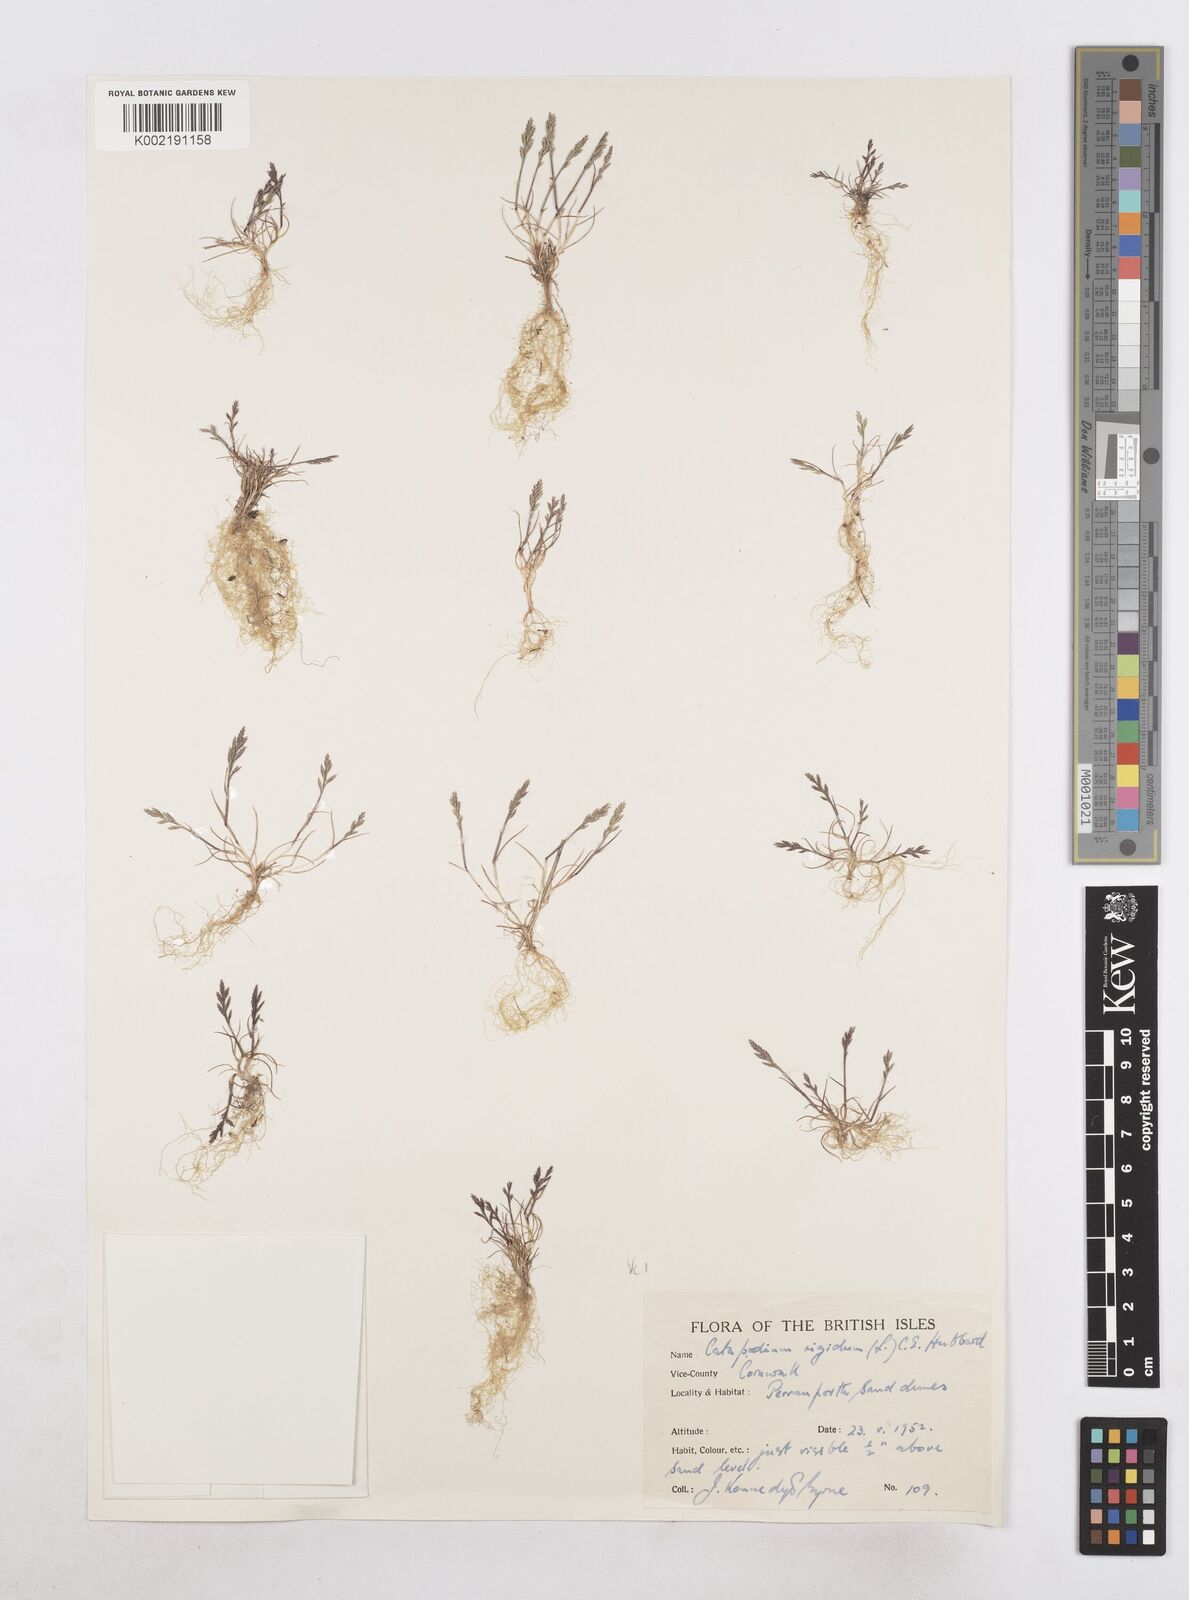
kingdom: Plantae
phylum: Tracheophyta
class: Liliopsida
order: Poales
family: Poaceae
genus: Catapodium
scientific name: Catapodium rigidum
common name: Fern-grass
